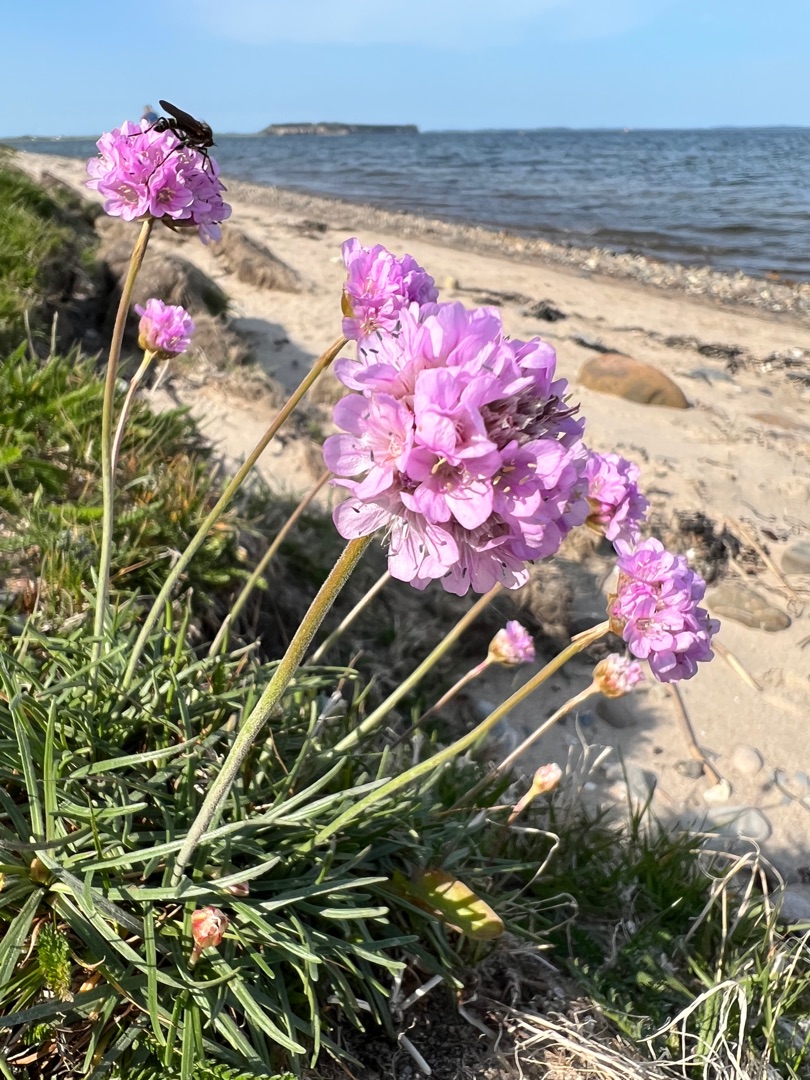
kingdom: Plantae
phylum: Tracheophyta
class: Magnoliopsida
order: Caryophyllales
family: Plumbaginaceae
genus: Armeria
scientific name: Armeria maritima
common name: Engelskgræs
